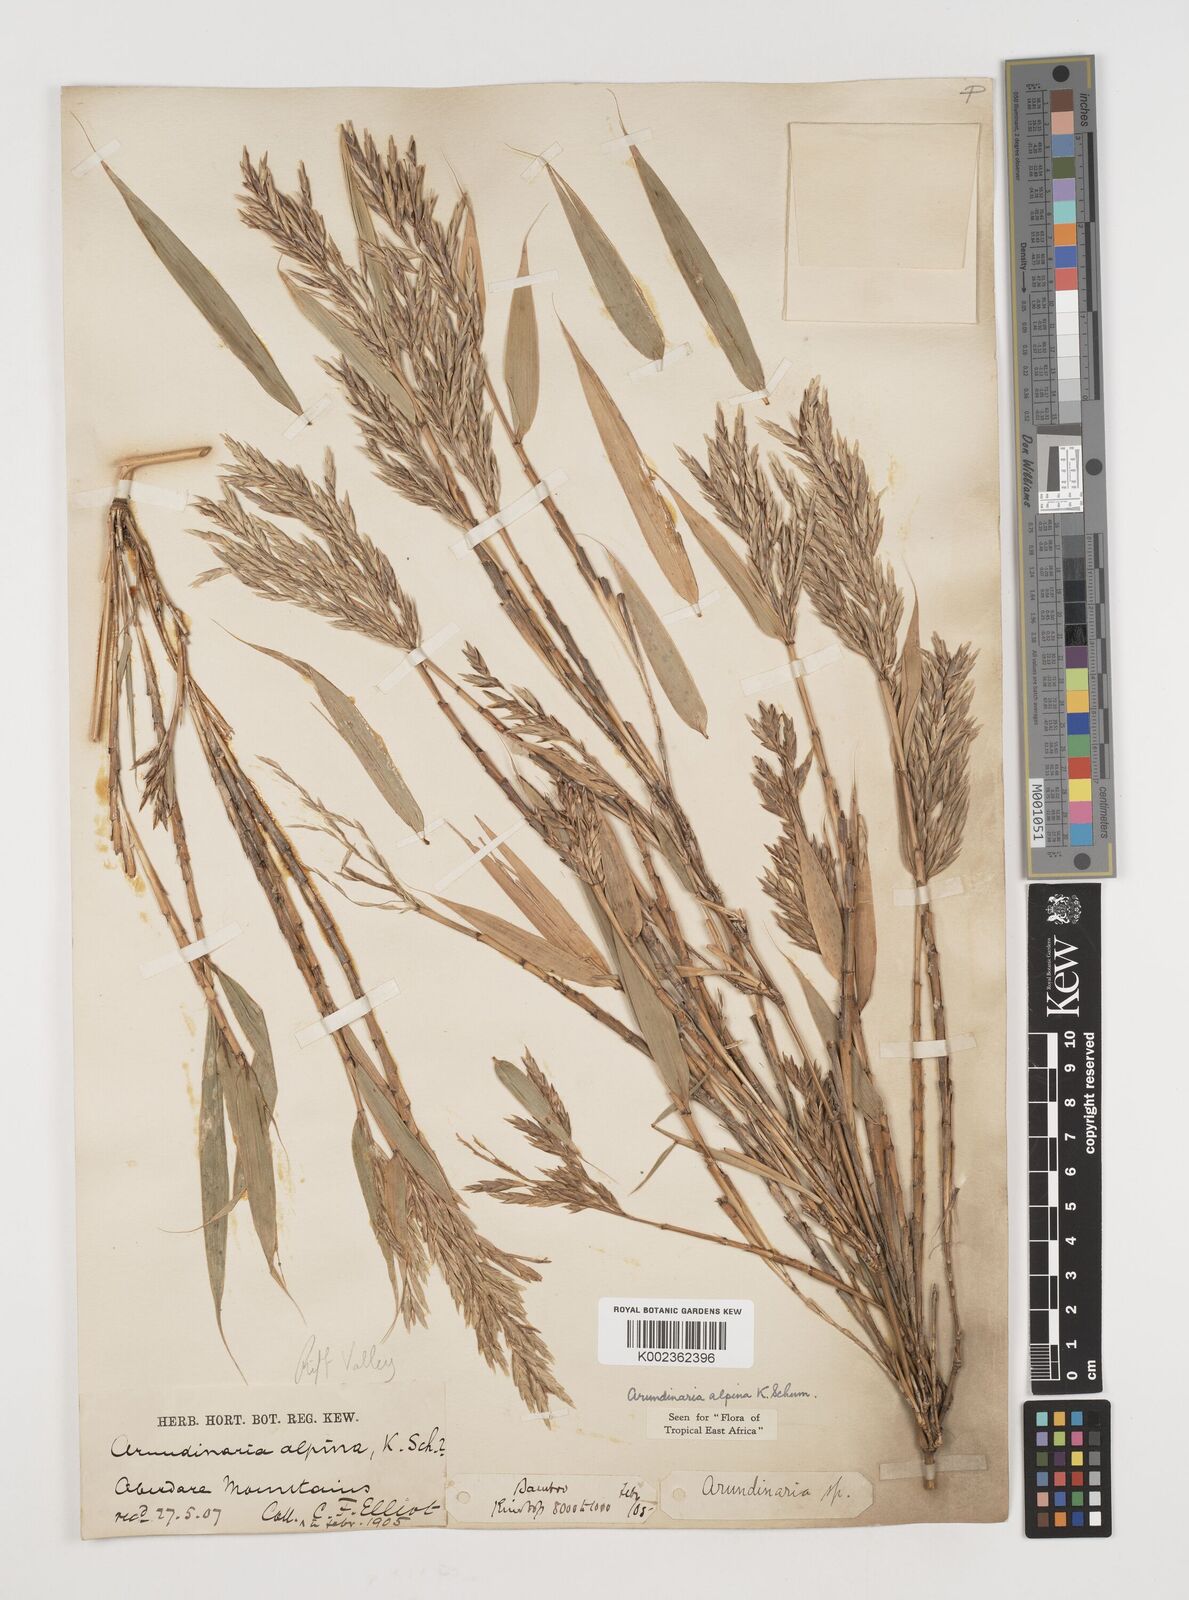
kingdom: Plantae
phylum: Tracheophyta
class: Liliopsida
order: Poales
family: Poaceae
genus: Oldeania
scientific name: Oldeania alpina
